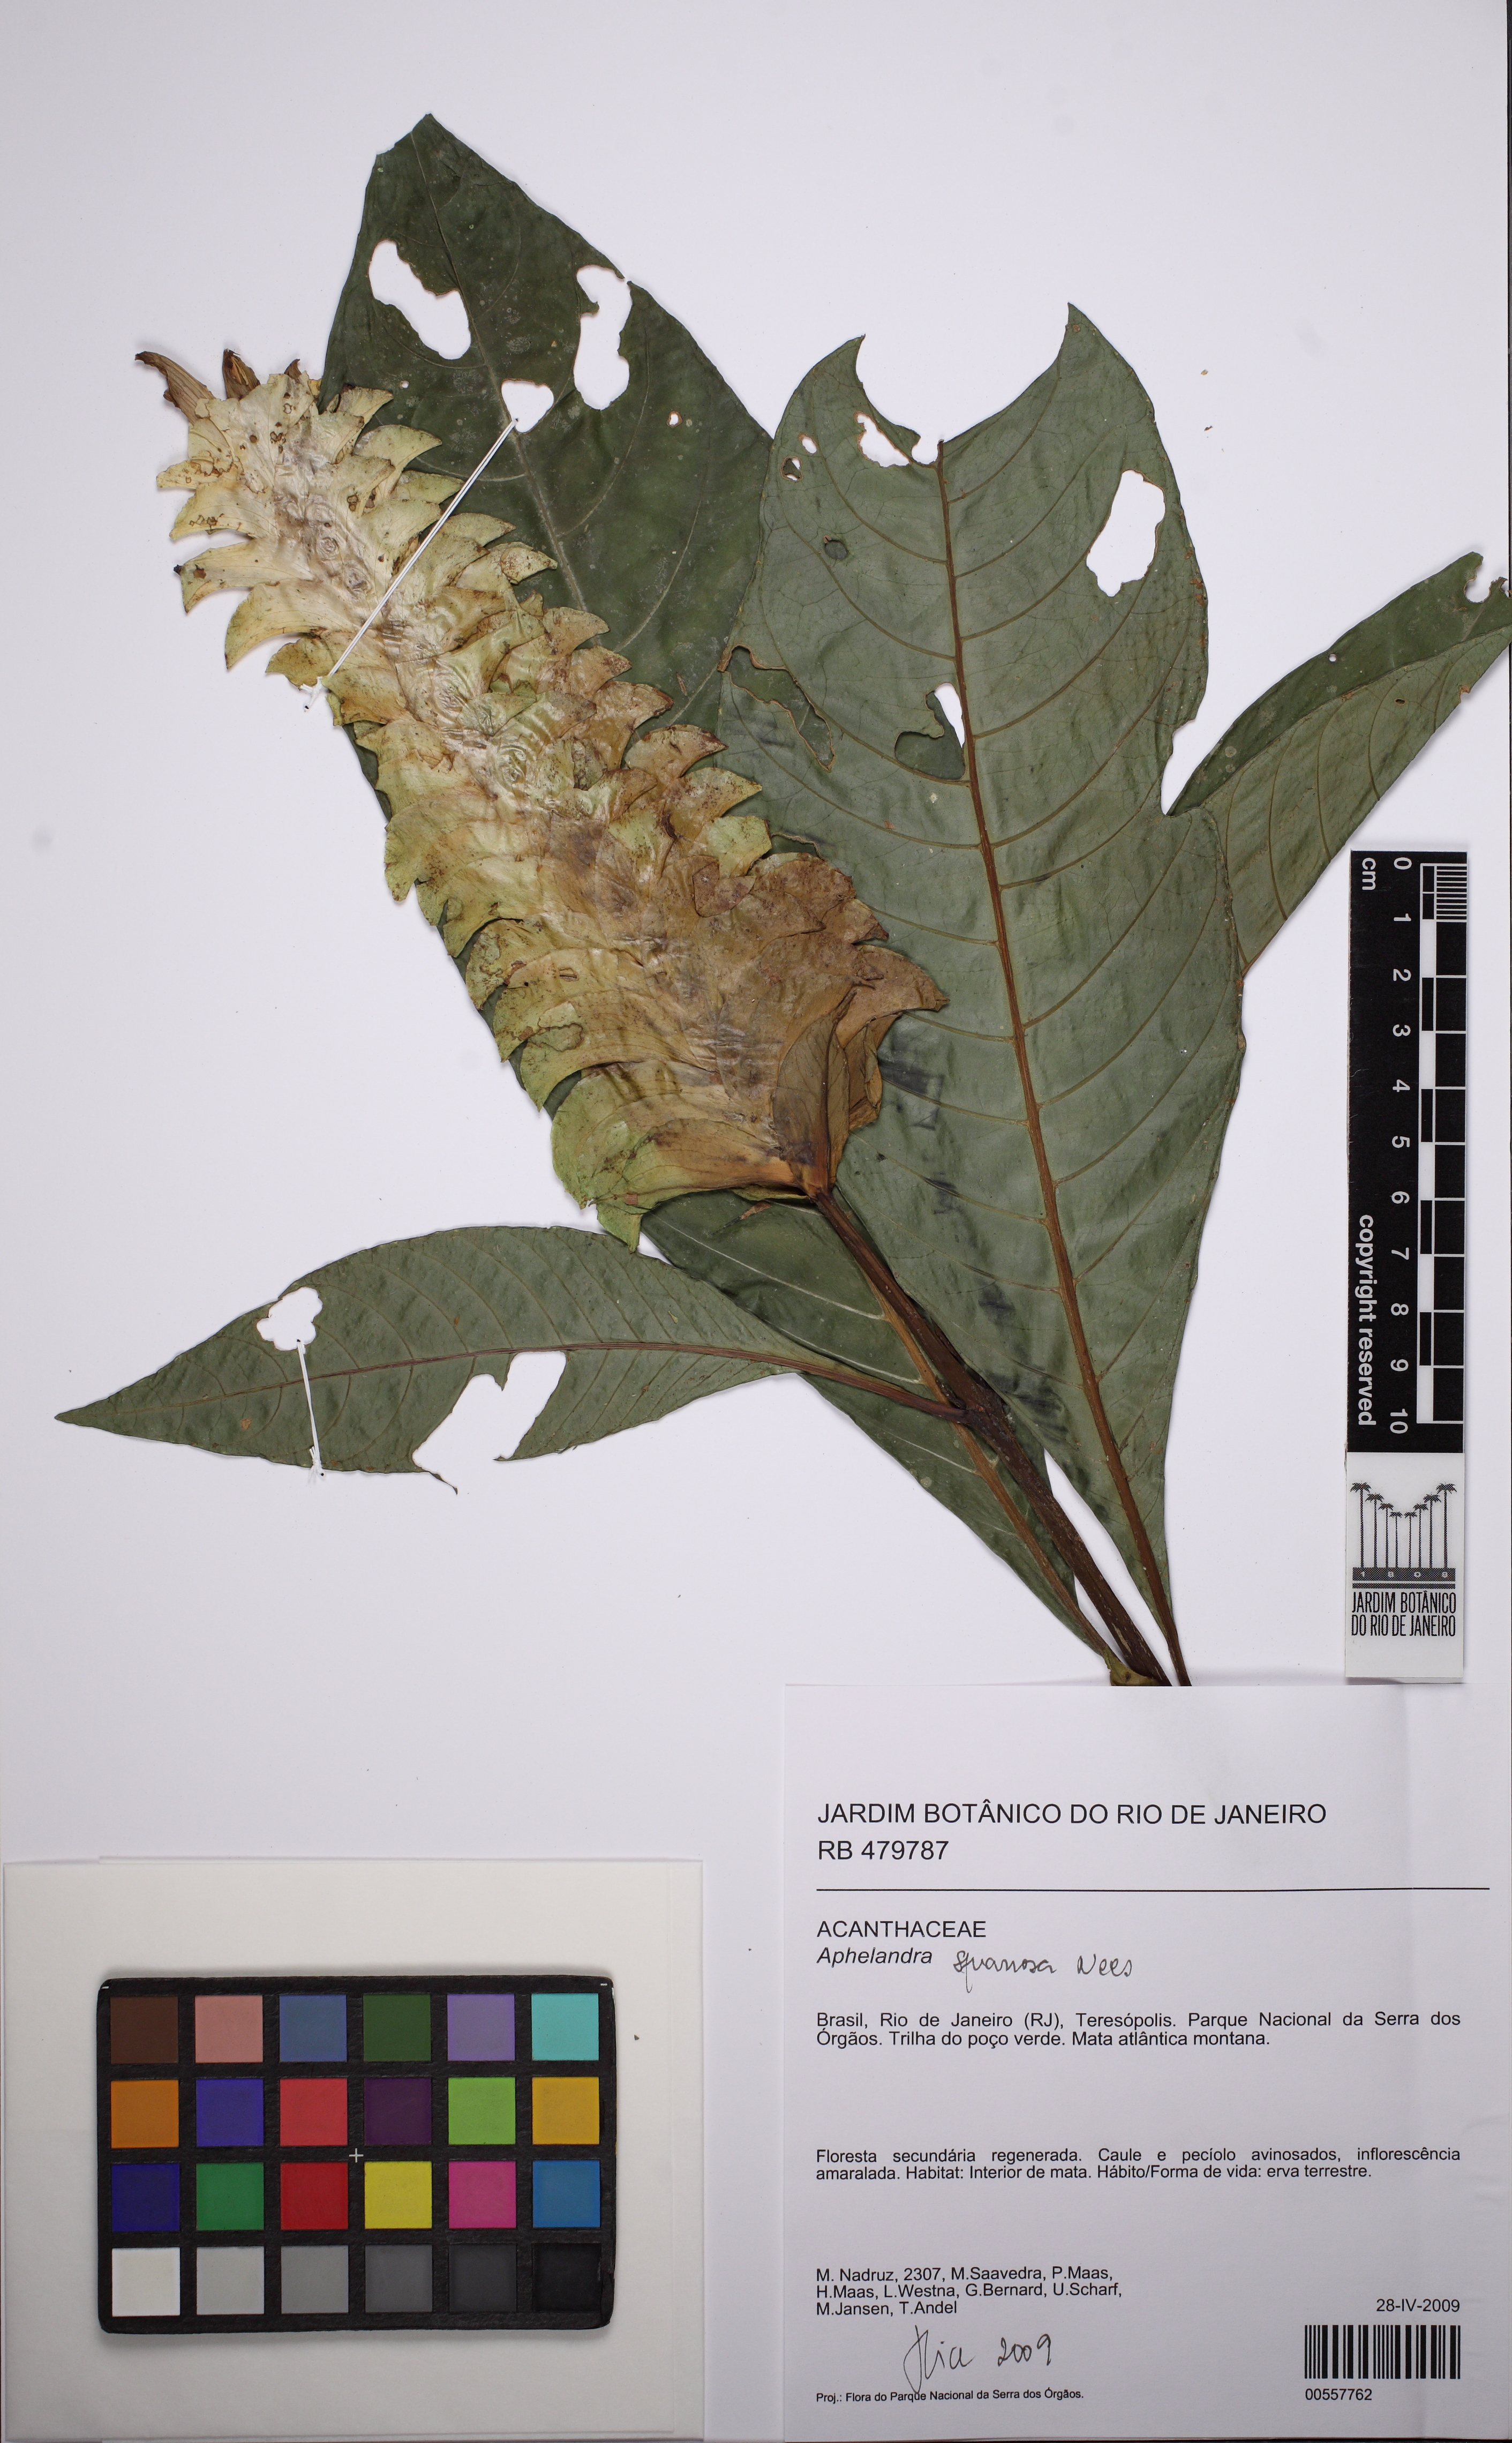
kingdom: Plantae
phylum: Tracheophyta
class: Magnoliopsida
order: Lamiales
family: Acanthaceae
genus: Aphelandra
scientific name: Aphelandra squarrosa
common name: Saffron spike
